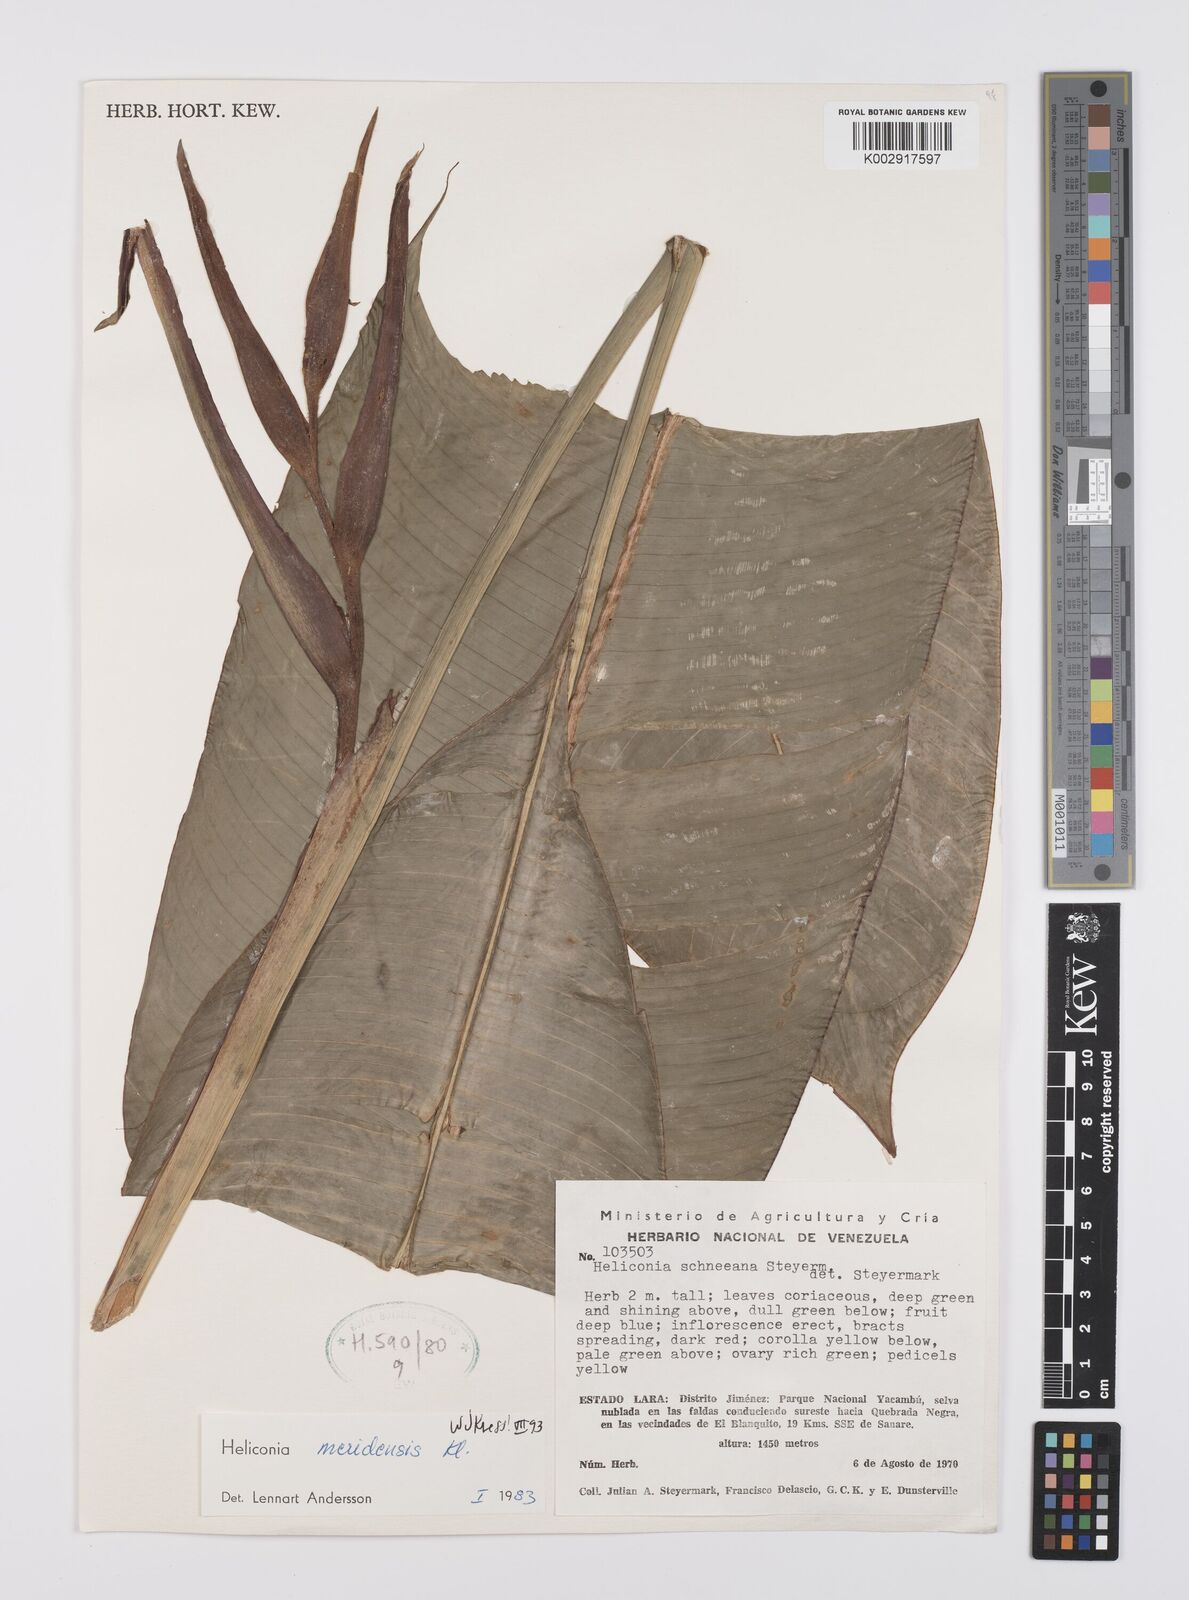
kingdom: Plantae
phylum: Tracheophyta
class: Liliopsida
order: Zingiberales
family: Heliconiaceae
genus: Heliconia
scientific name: Heliconia meridensis
